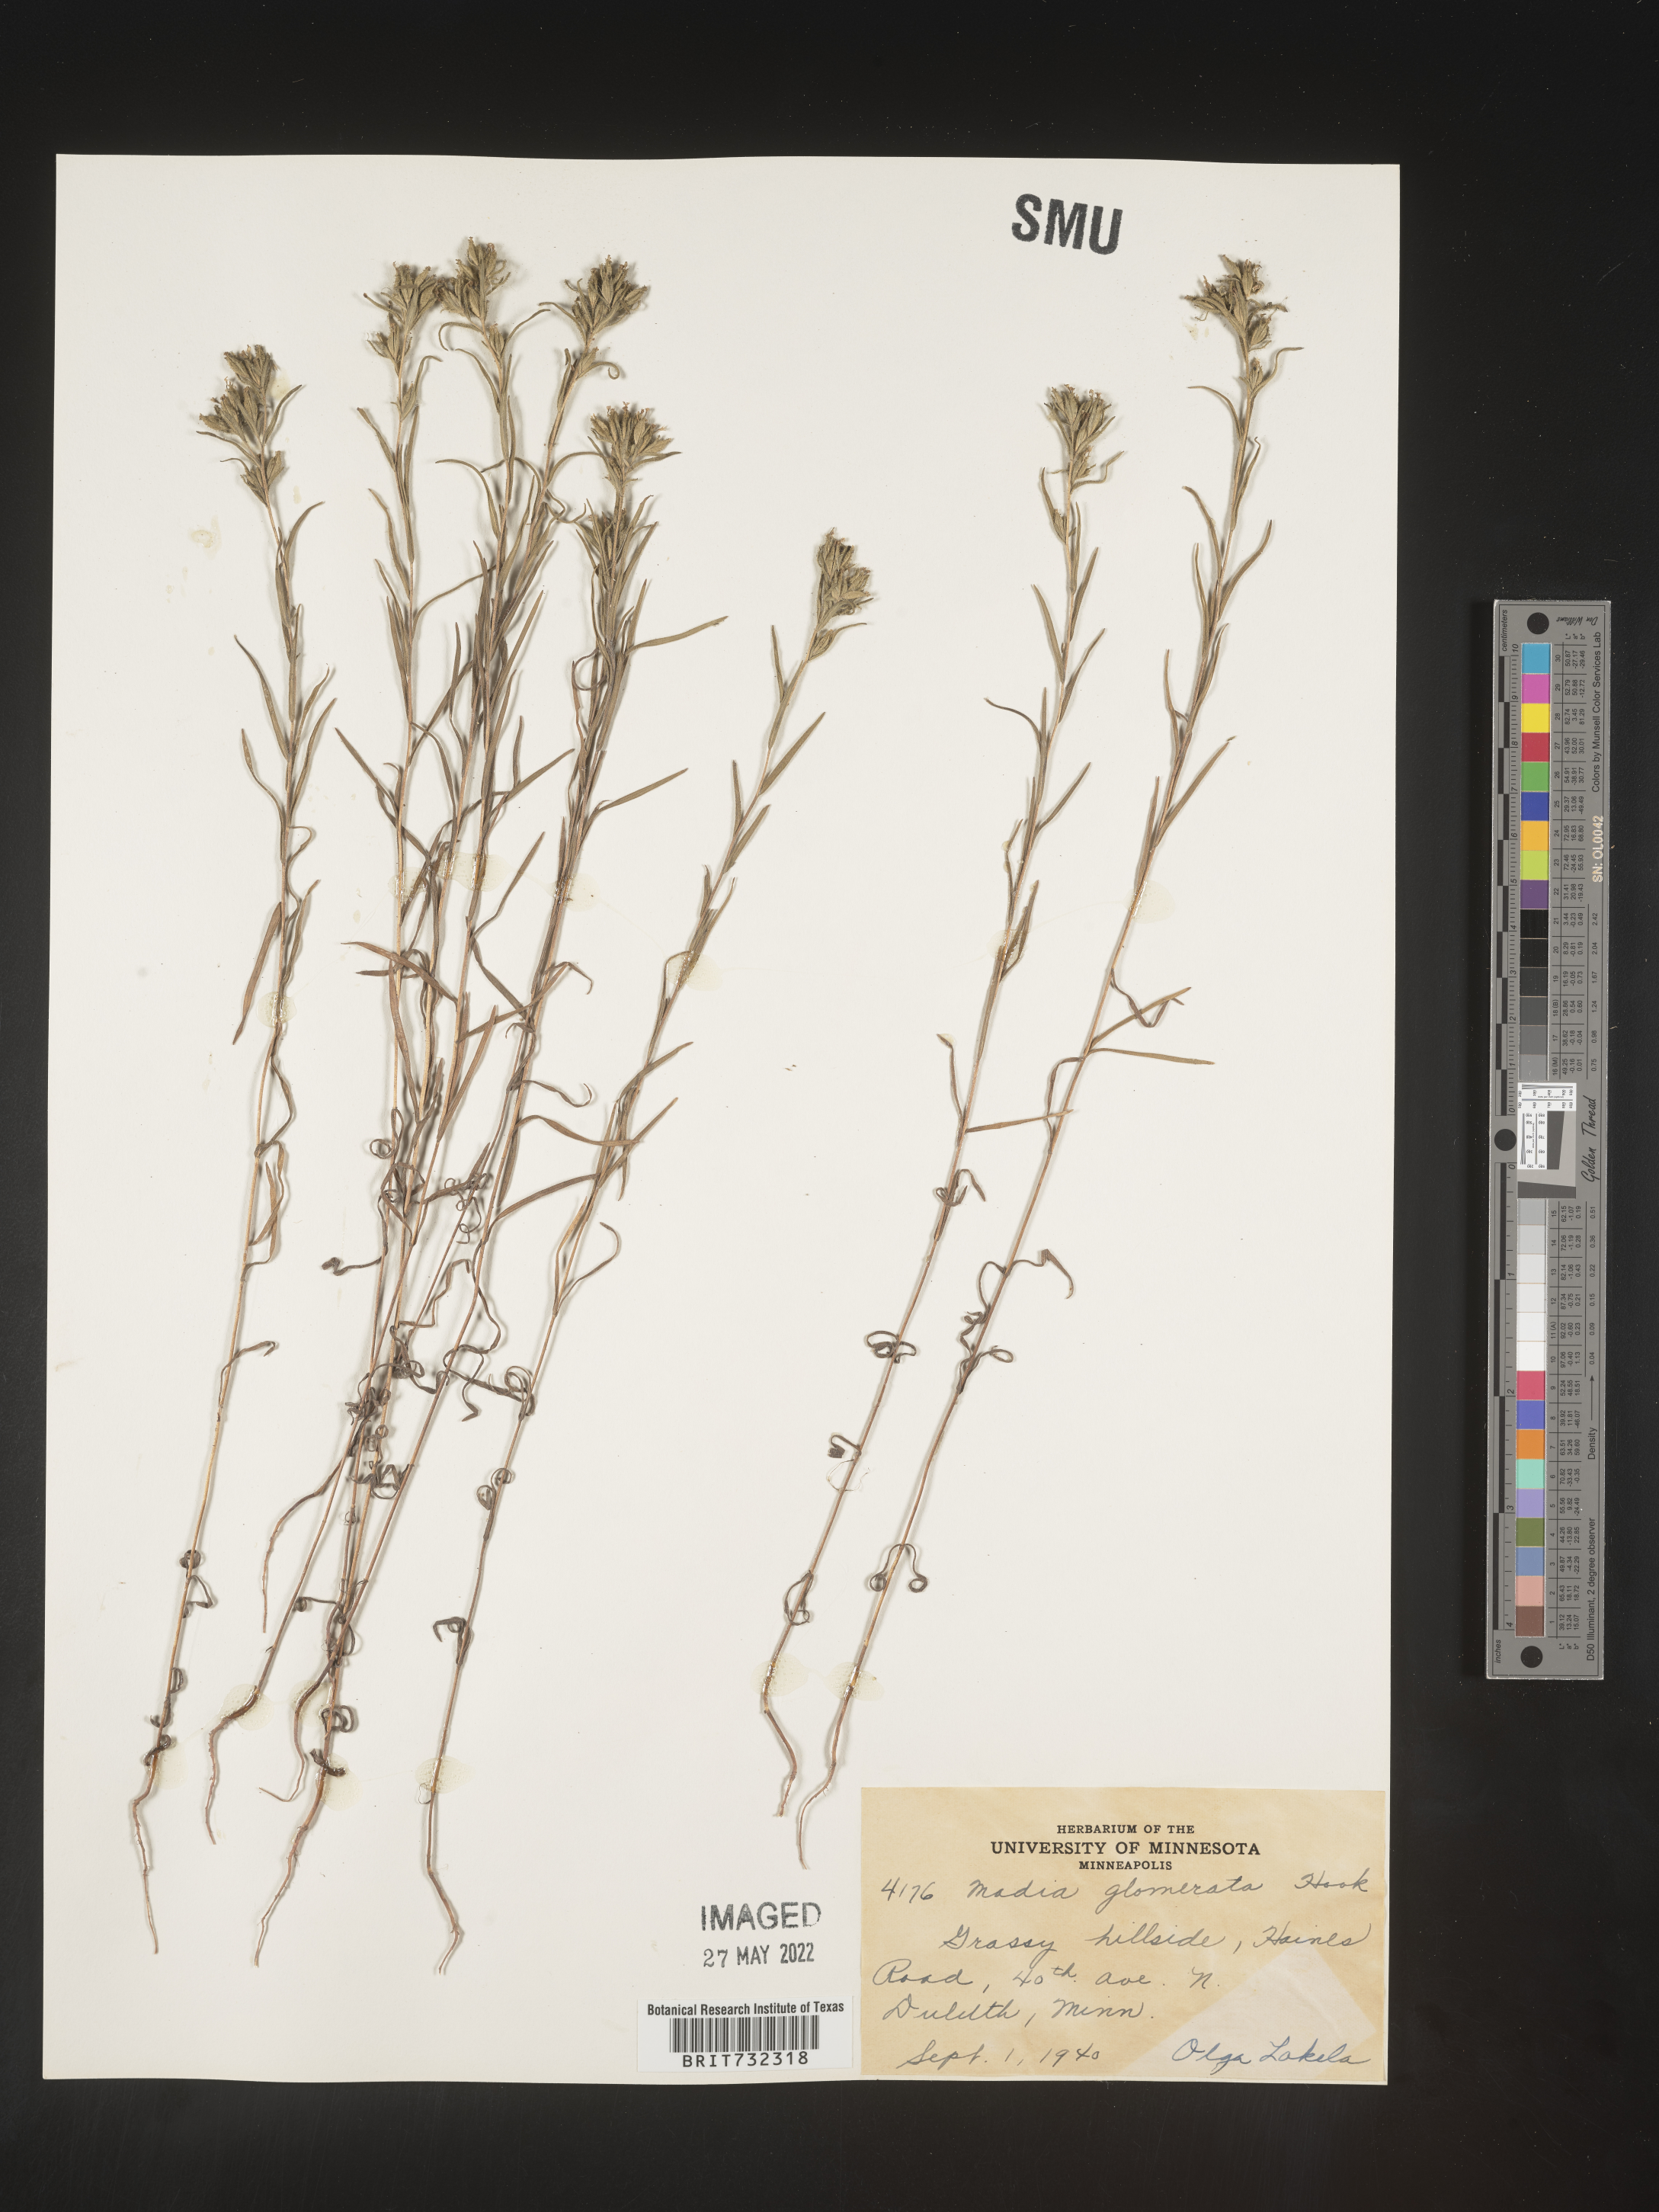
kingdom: Plantae
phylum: Tracheophyta
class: Magnoliopsida
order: Asterales
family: Asteraceae
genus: Madia
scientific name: Madia glomerata
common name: Mountain tarweed
